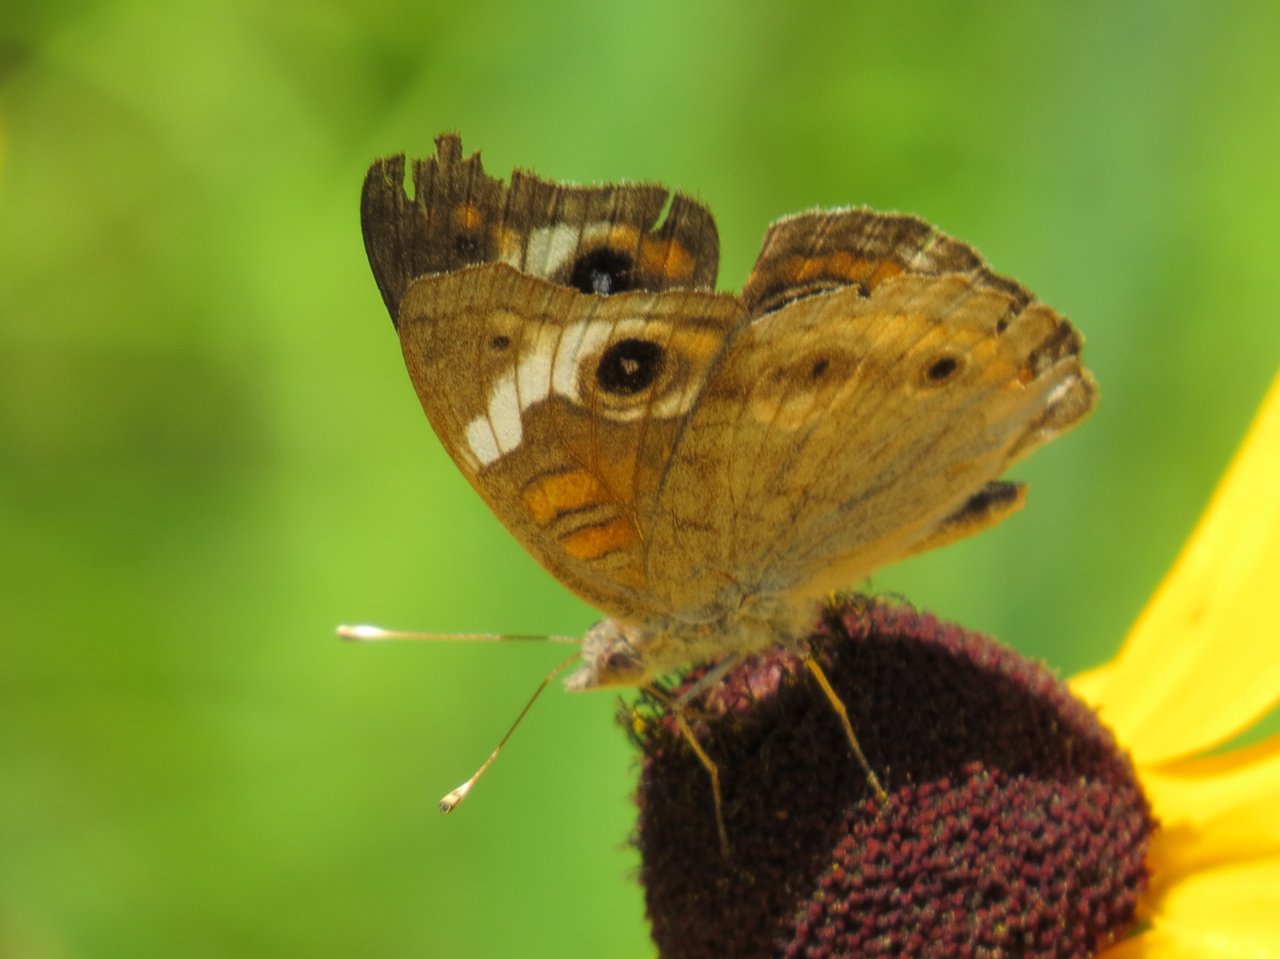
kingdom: Animalia
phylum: Arthropoda
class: Insecta
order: Lepidoptera
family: Nymphalidae
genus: Junonia
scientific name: Junonia coenia
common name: Common Buckeye
